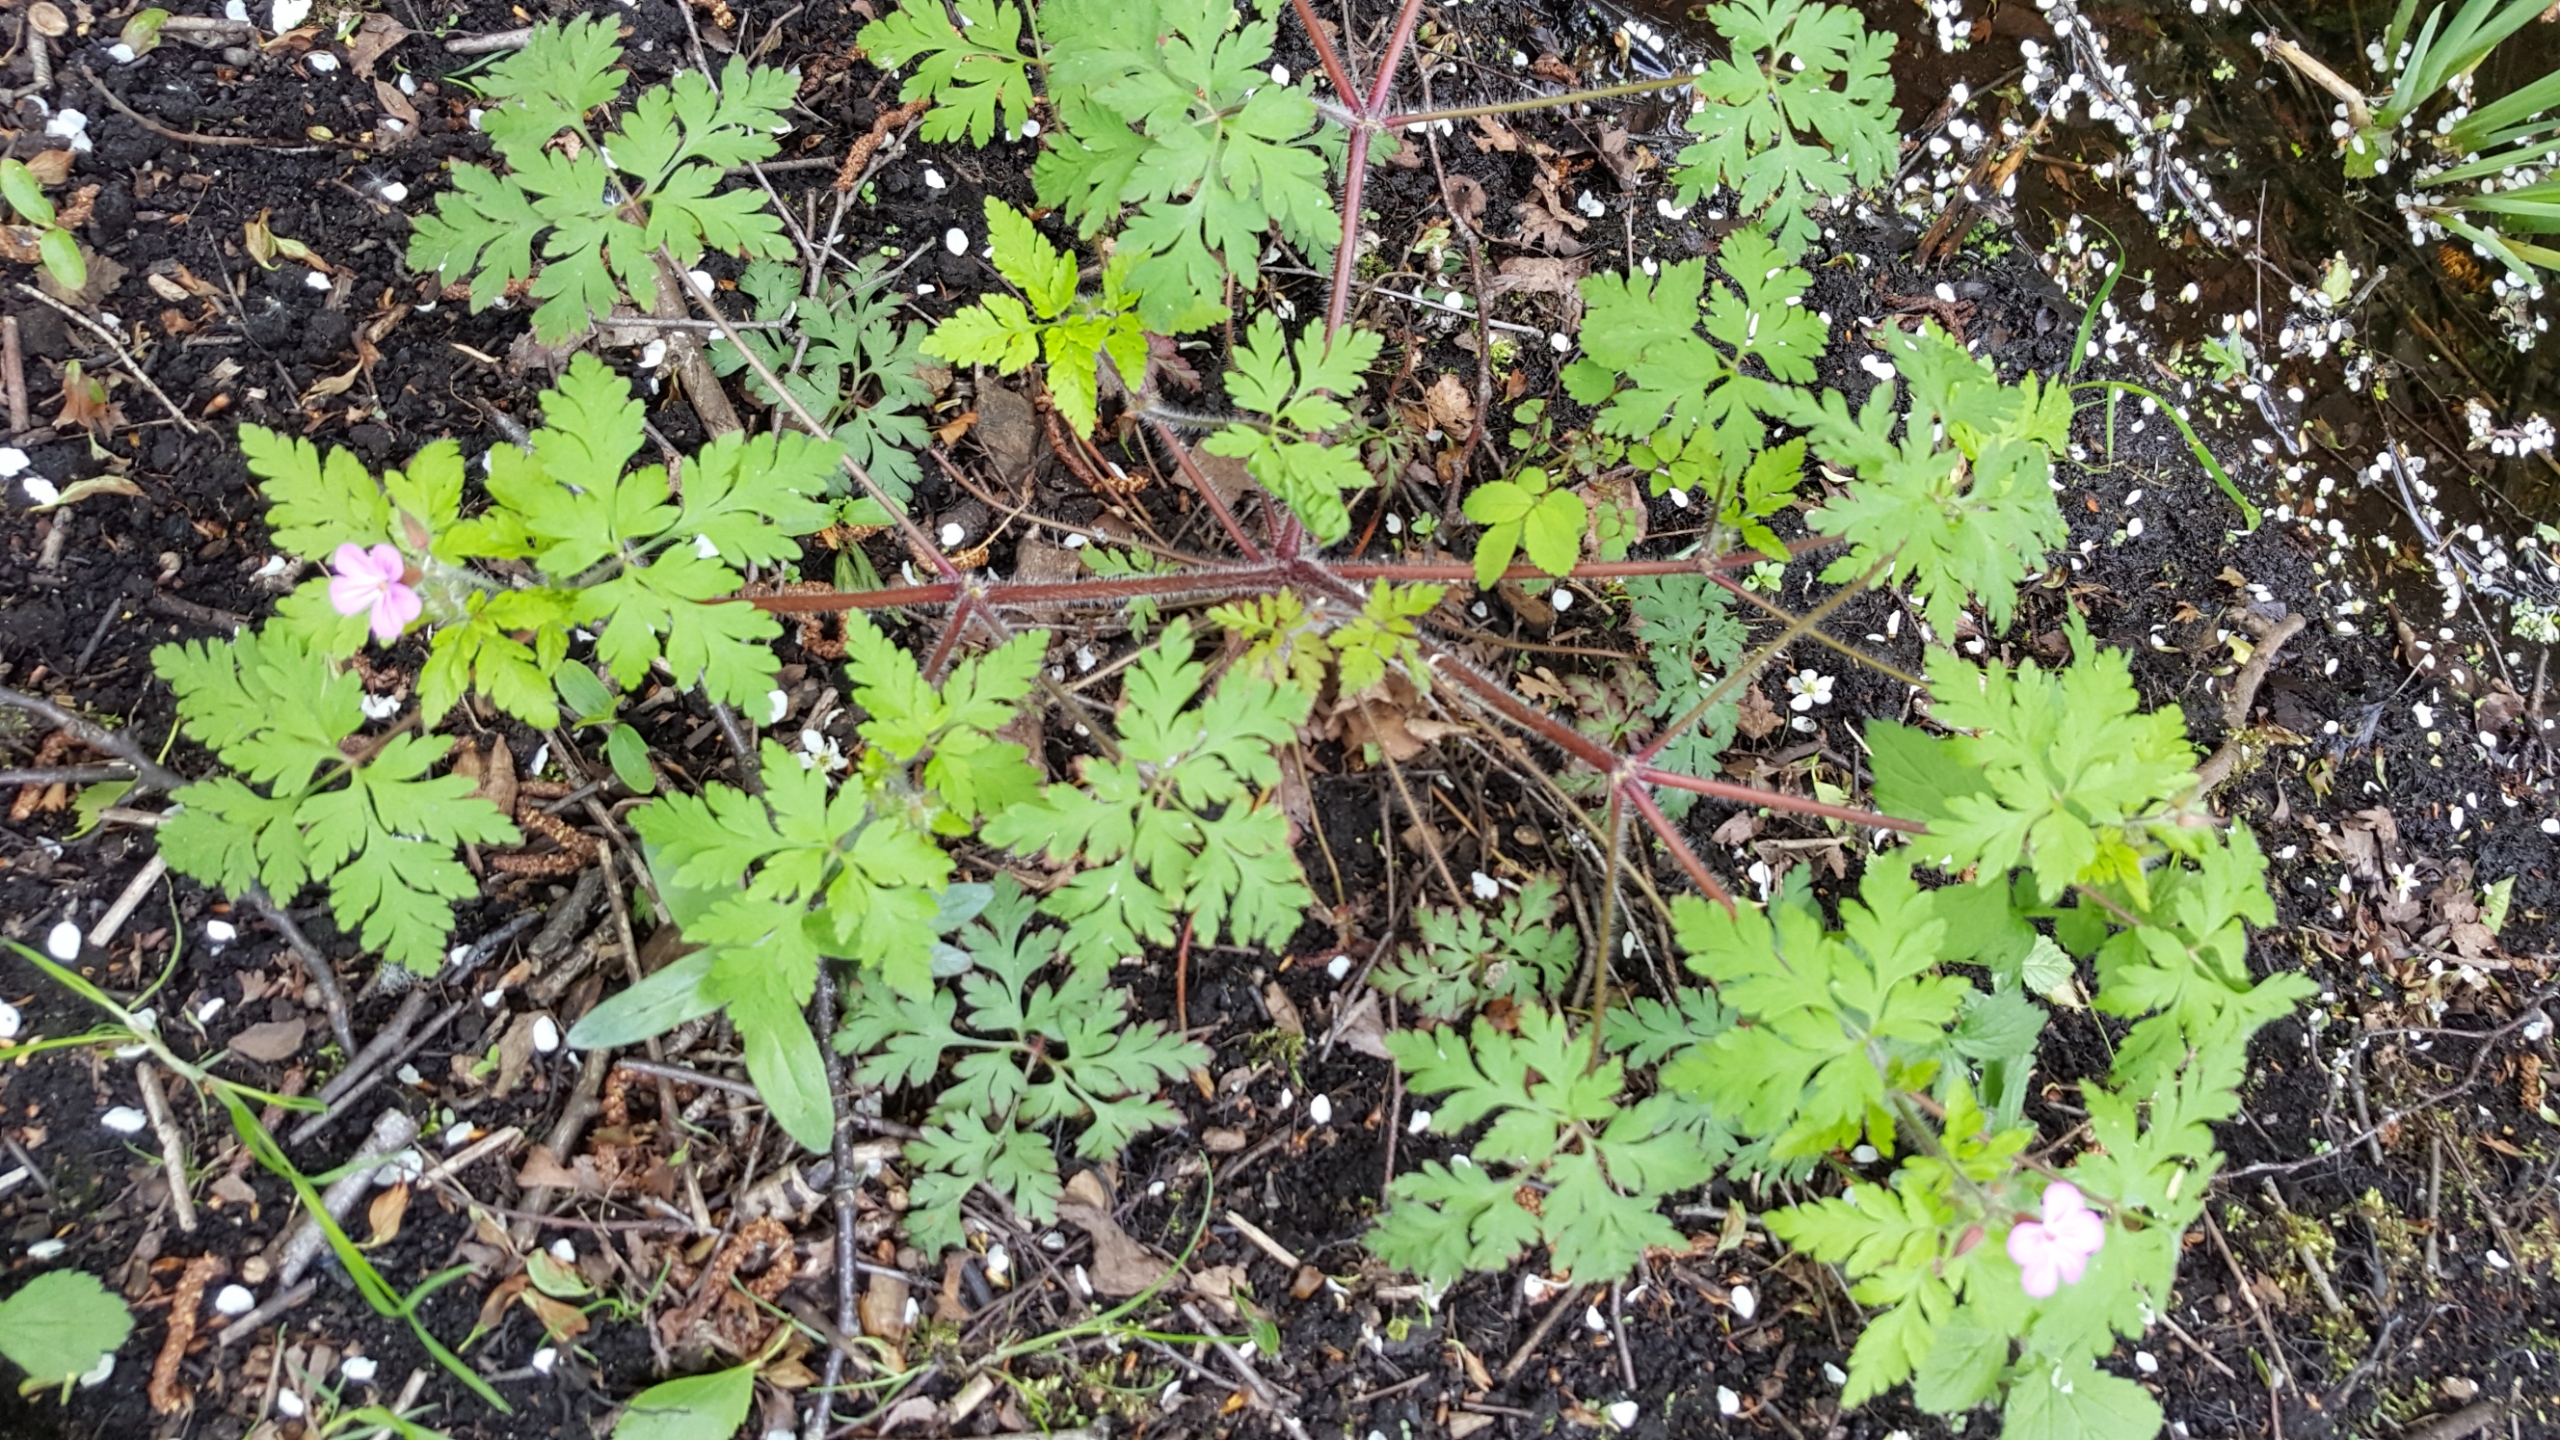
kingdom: Plantae
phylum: Tracheophyta
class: Magnoliopsida
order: Geraniales
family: Geraniaceae
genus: Geranium
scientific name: Geranium robertianum
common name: Stinkende storkenæb
